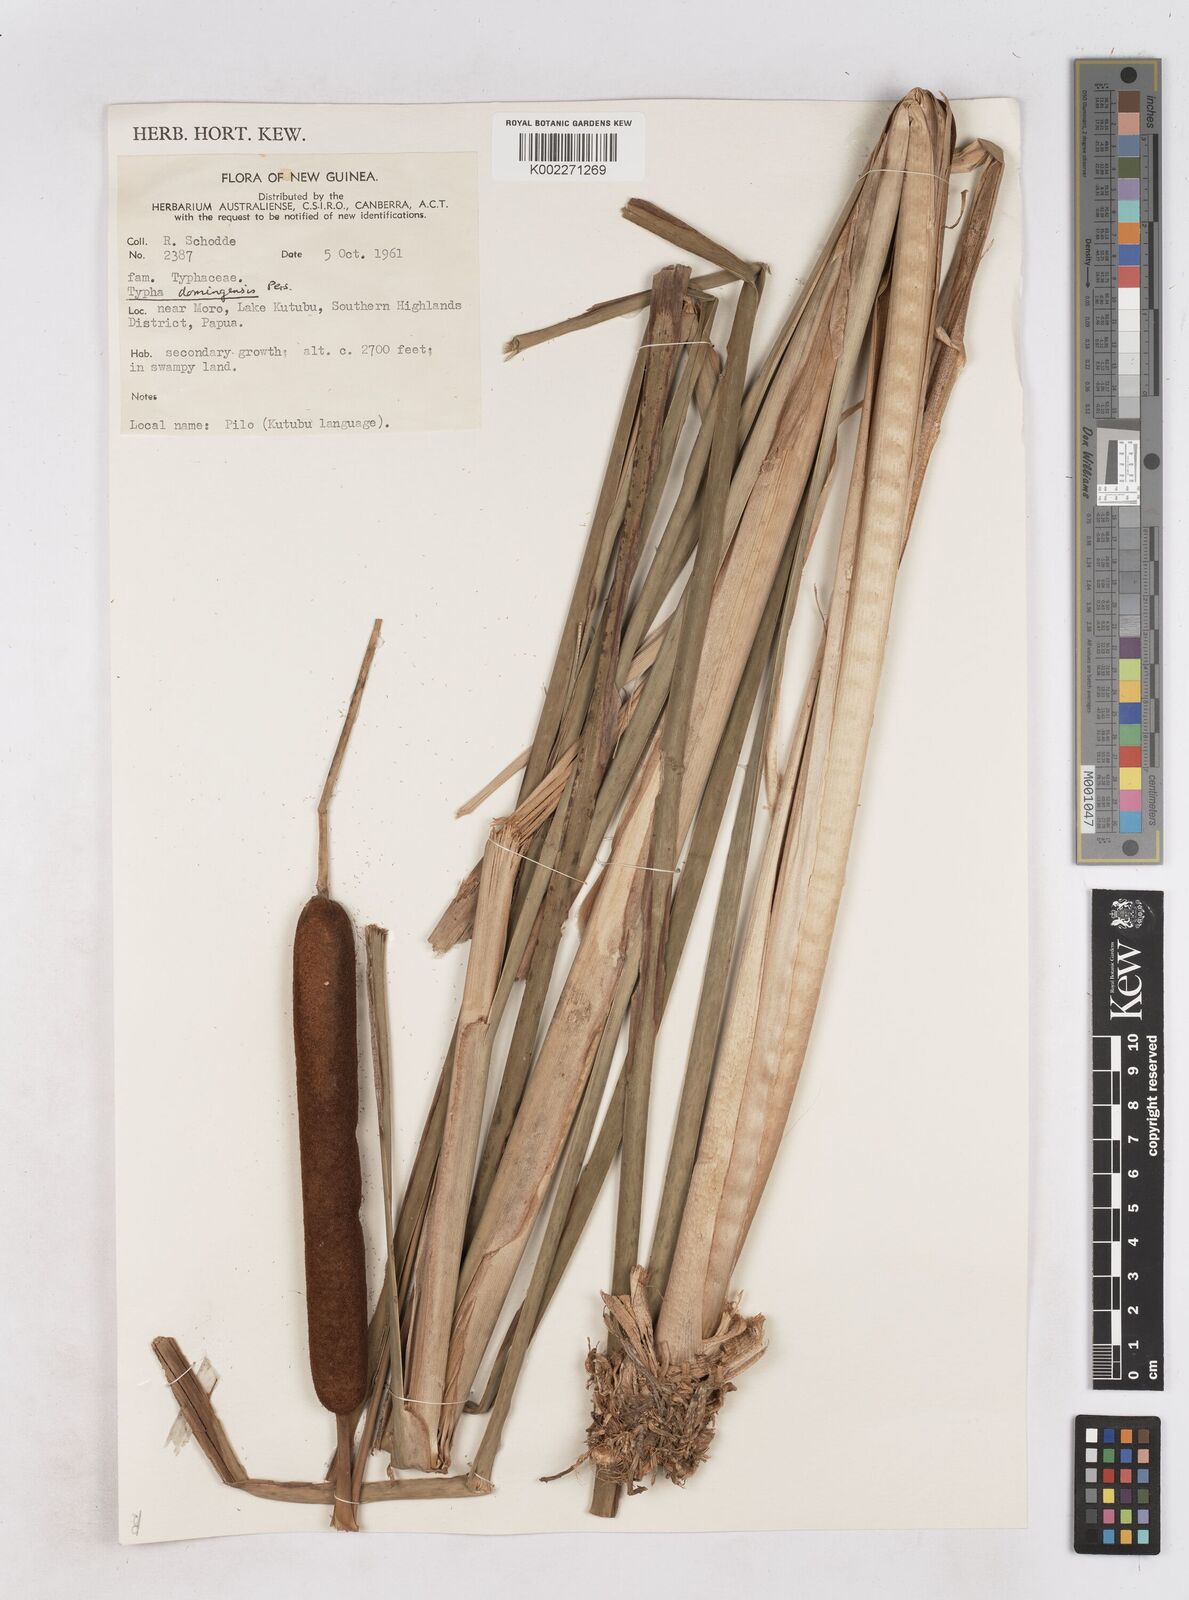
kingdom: Plantae
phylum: Tracheophyta
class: Liliopsida
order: Poales
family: Typhaceae
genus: Typha
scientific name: Typha domingensis
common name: Southern cattail
